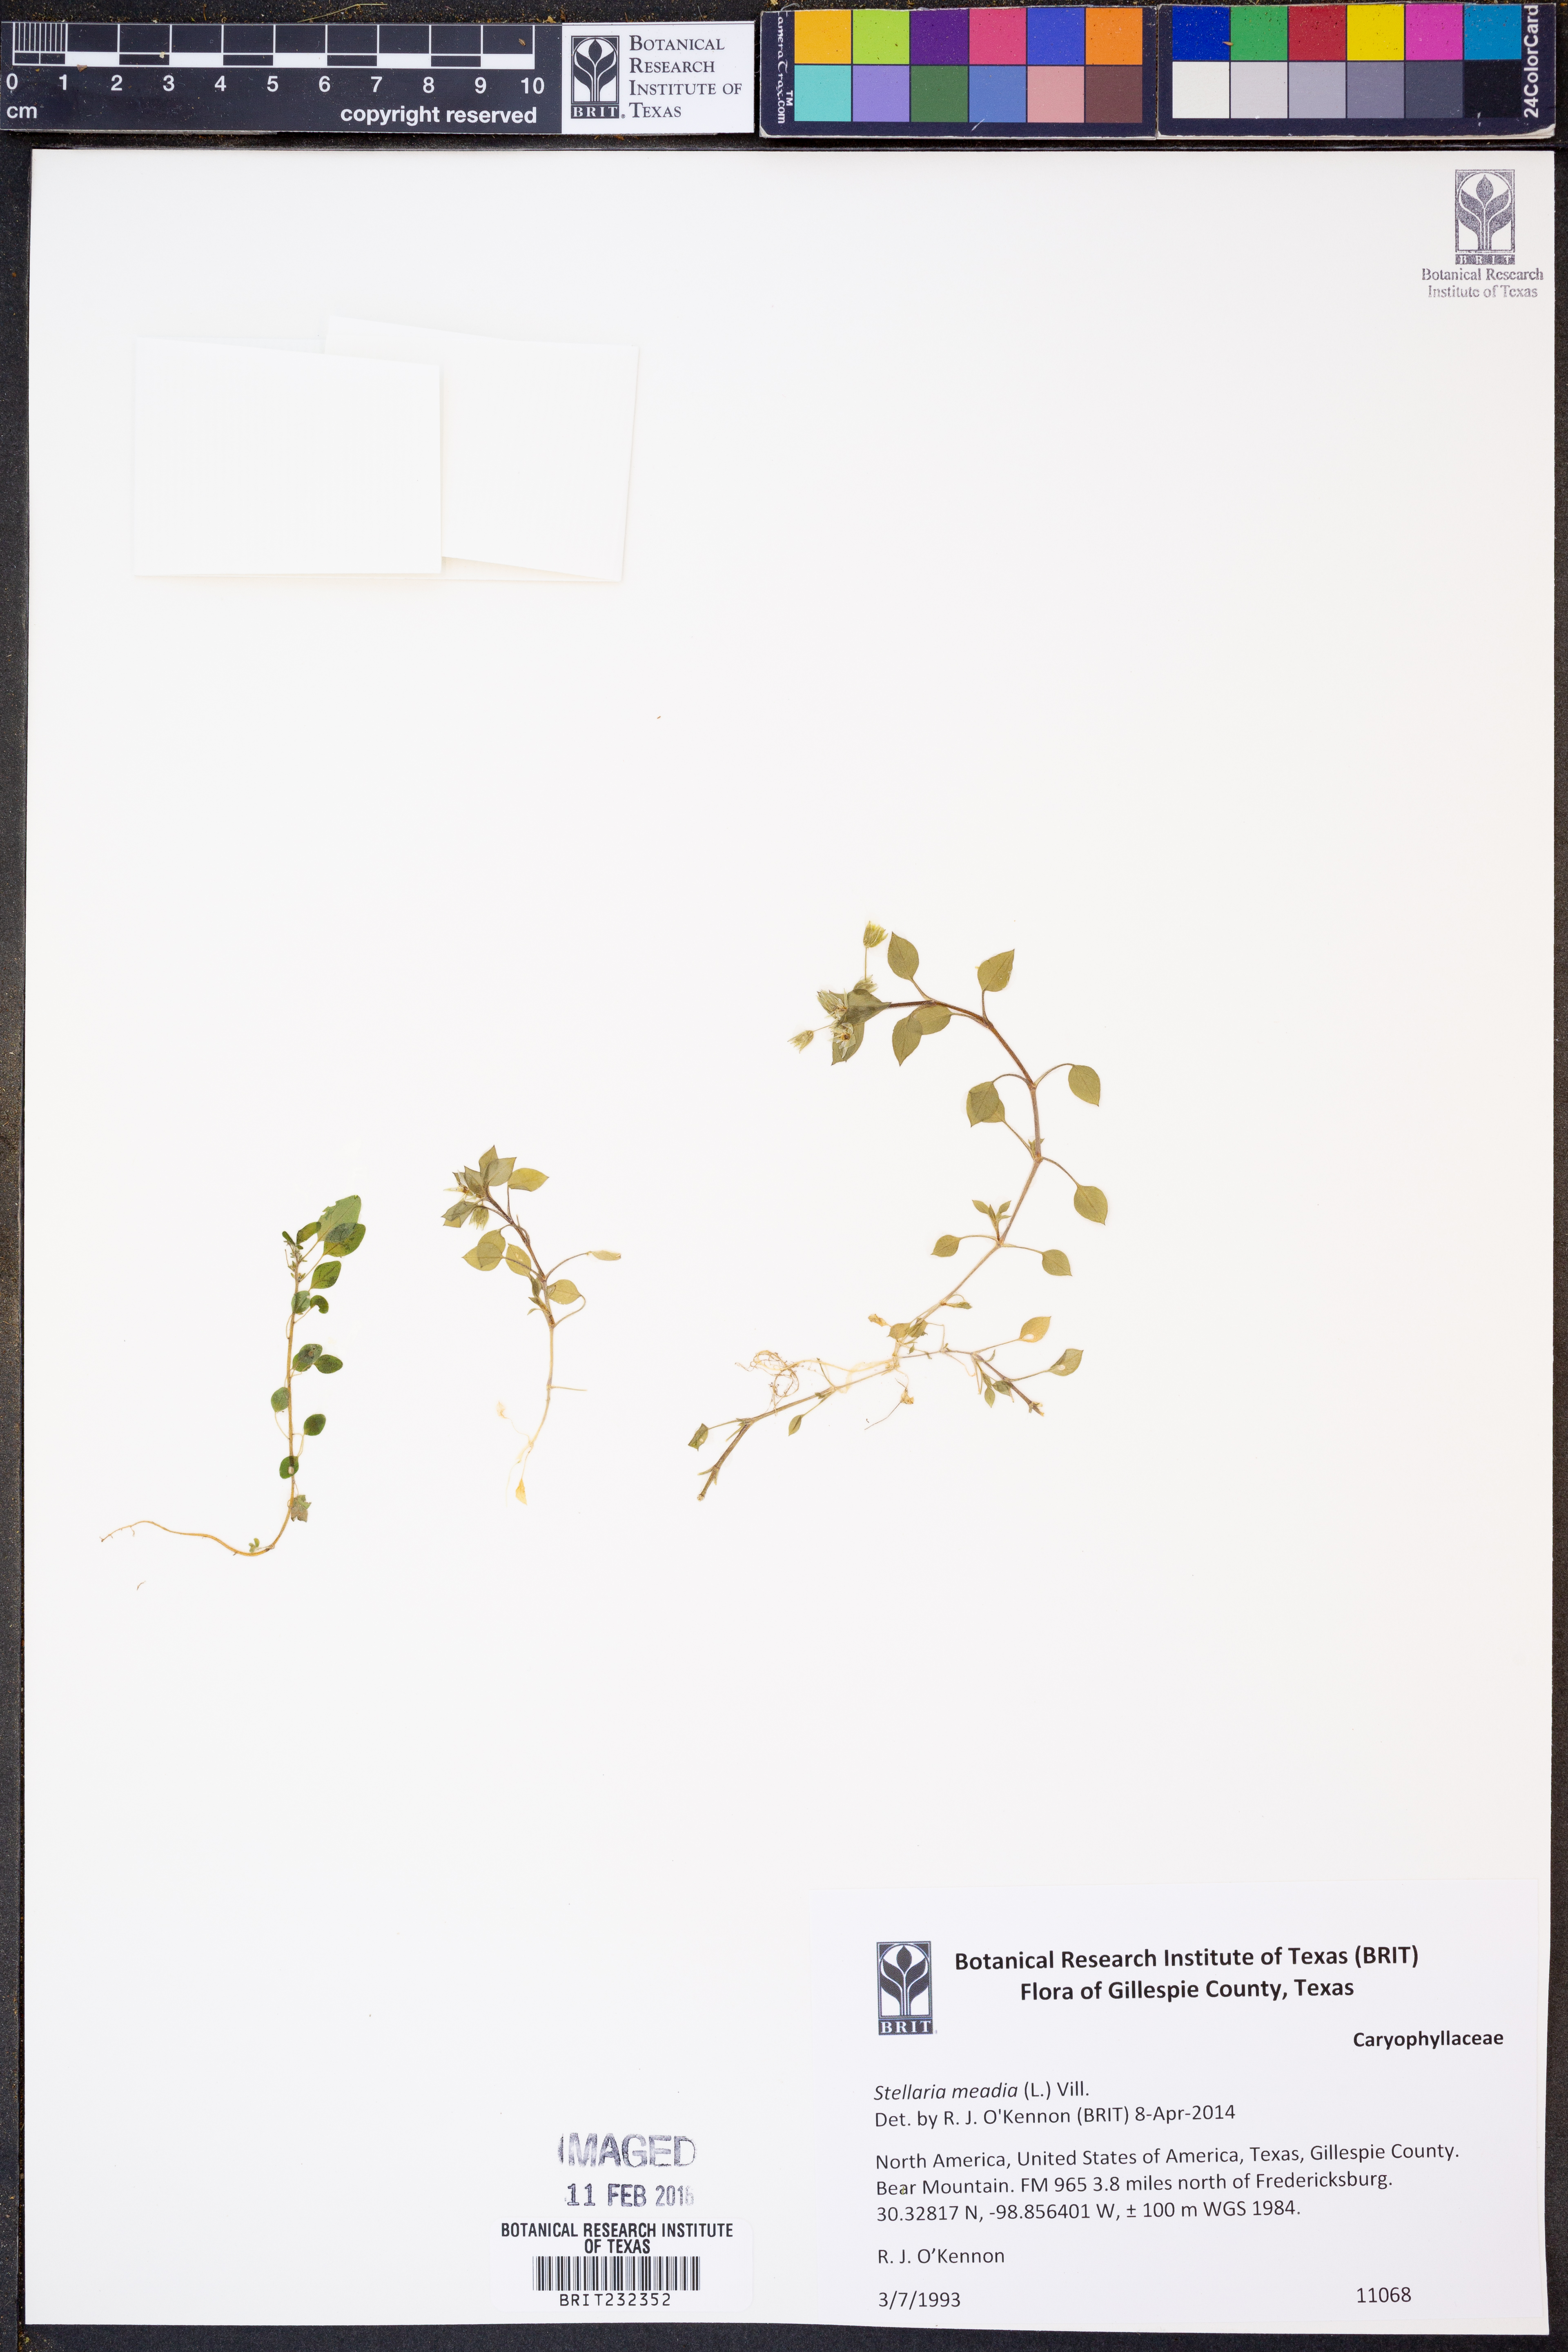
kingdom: Plantae
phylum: Tracheophyta
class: Magnoliopsida
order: Caryophyllales
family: Caryophyllaceae
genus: Stellaria
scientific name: Stellaria media
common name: Common chickweed
